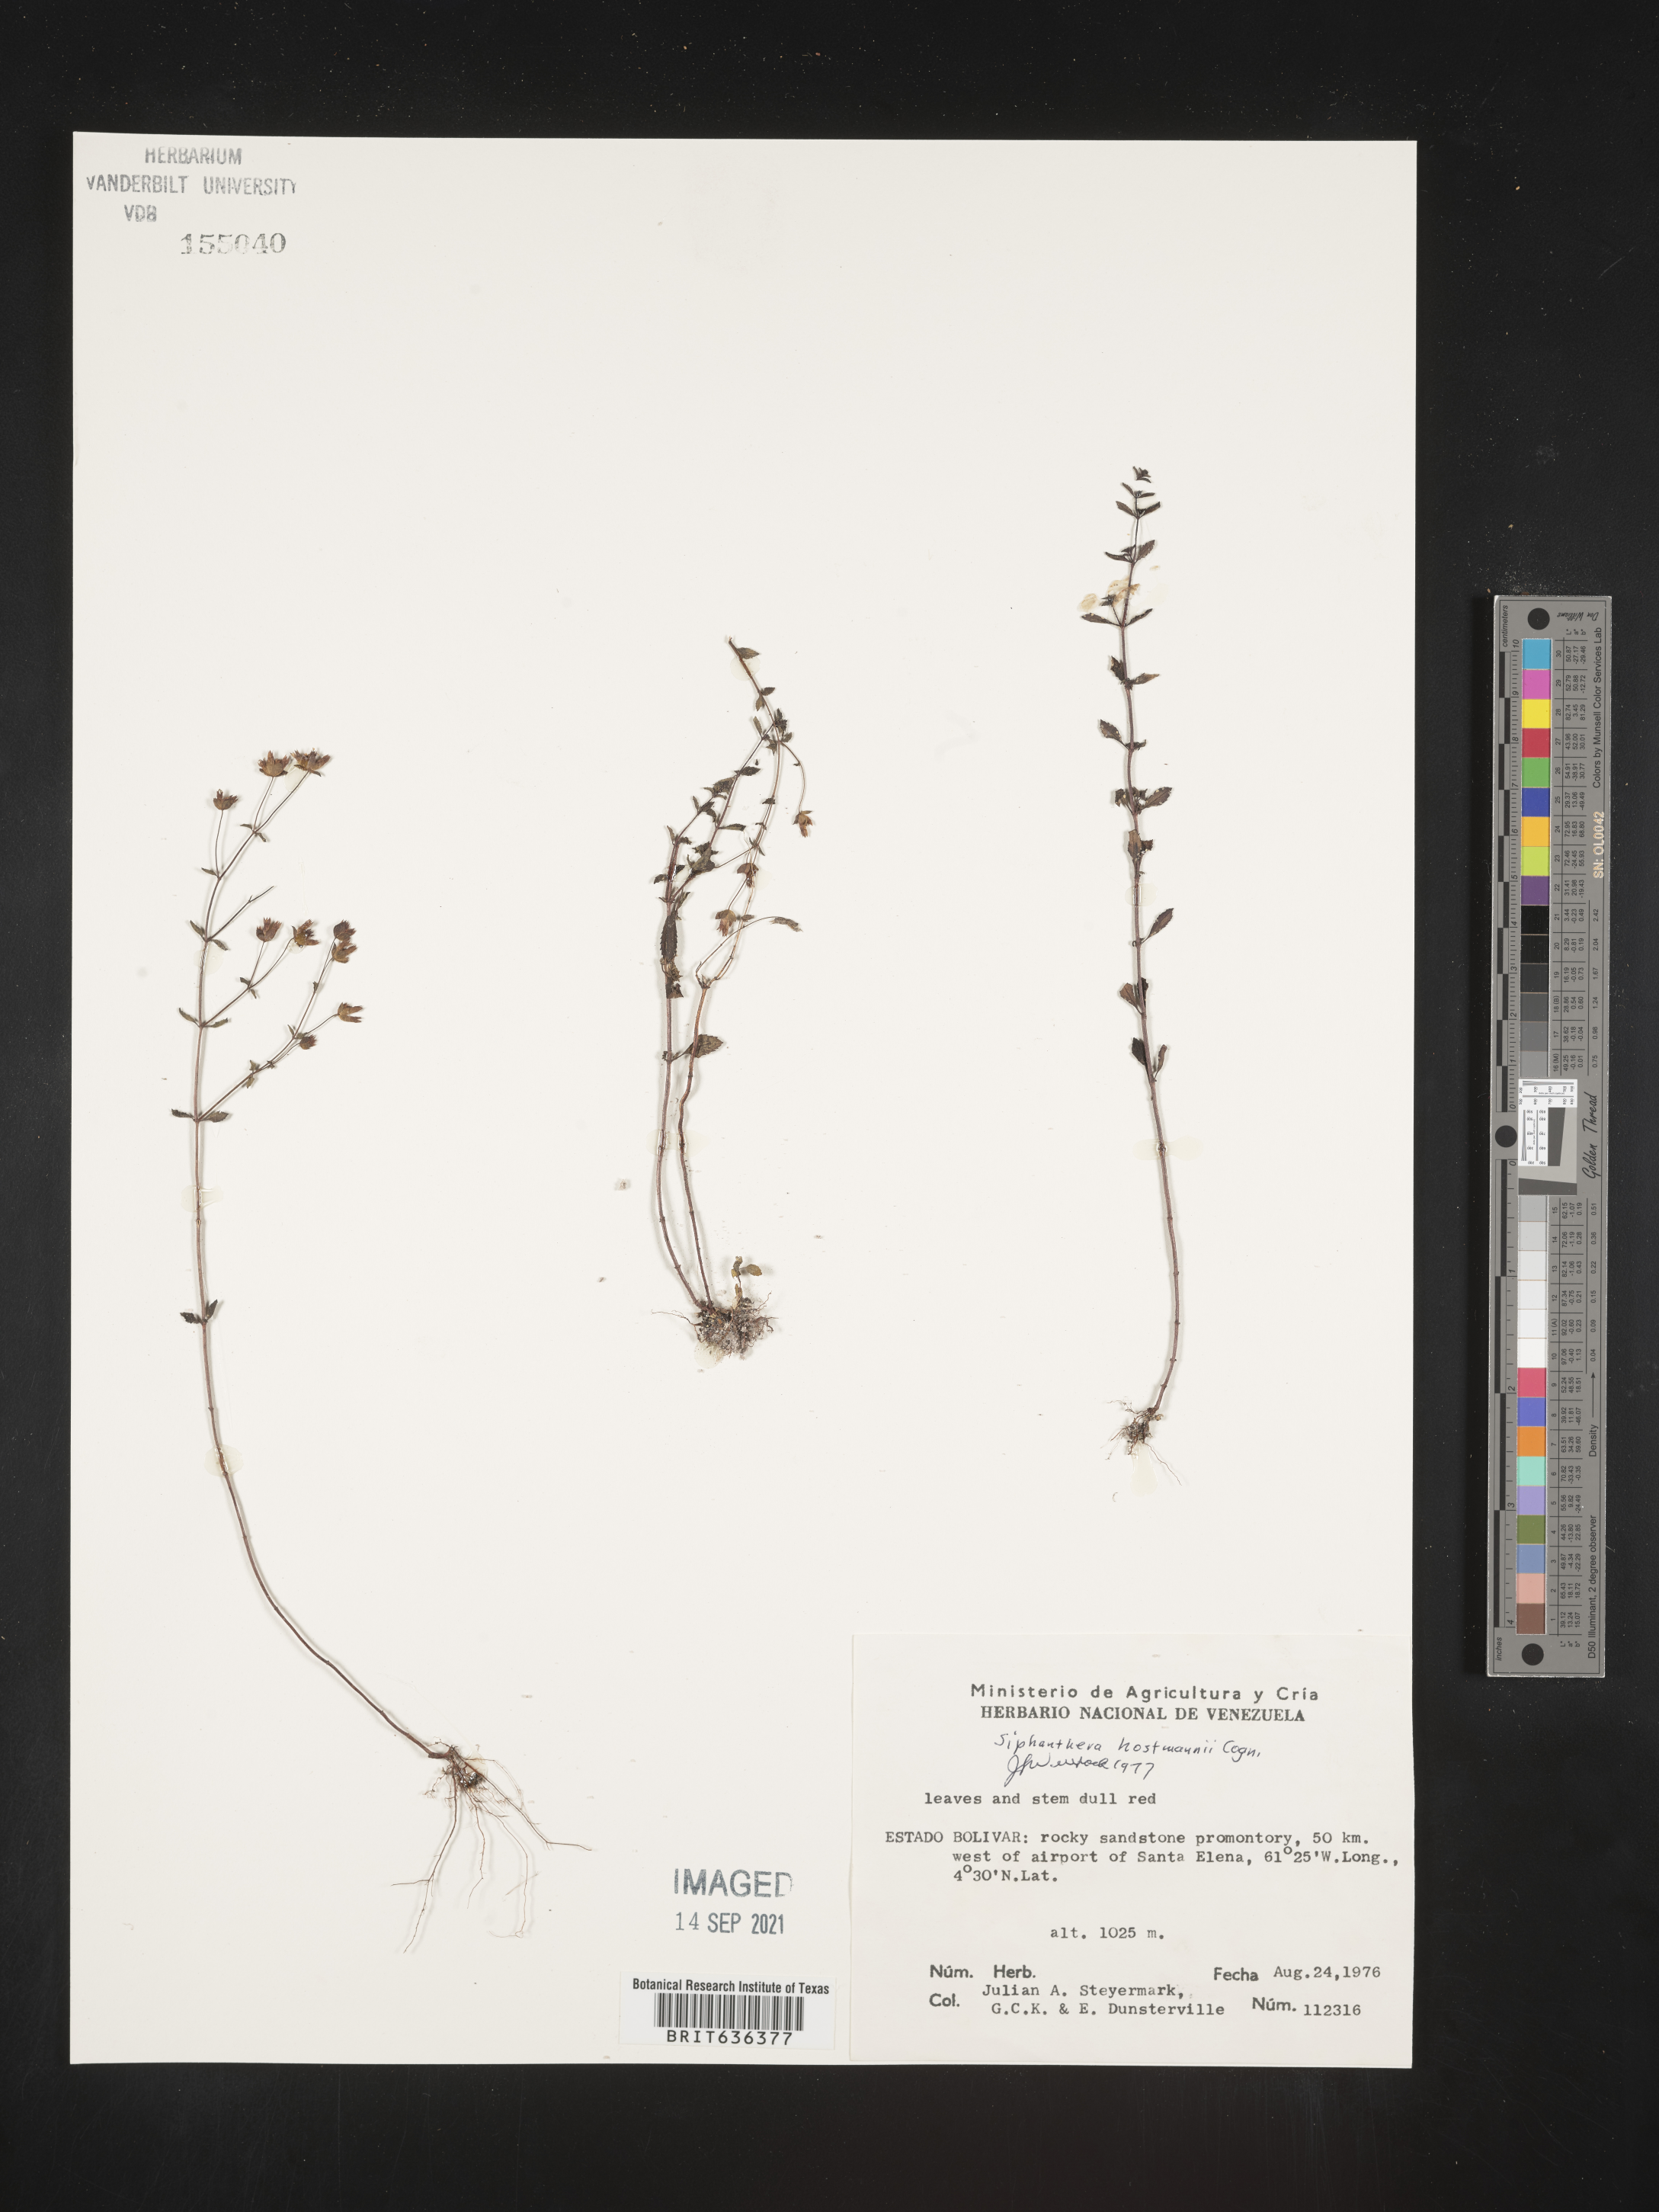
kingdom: Plantae
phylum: Tracheophyta
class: Magnoliopsida
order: Myrtales
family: Melastomataceae
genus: Siphanthera
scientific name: Siphanthera
